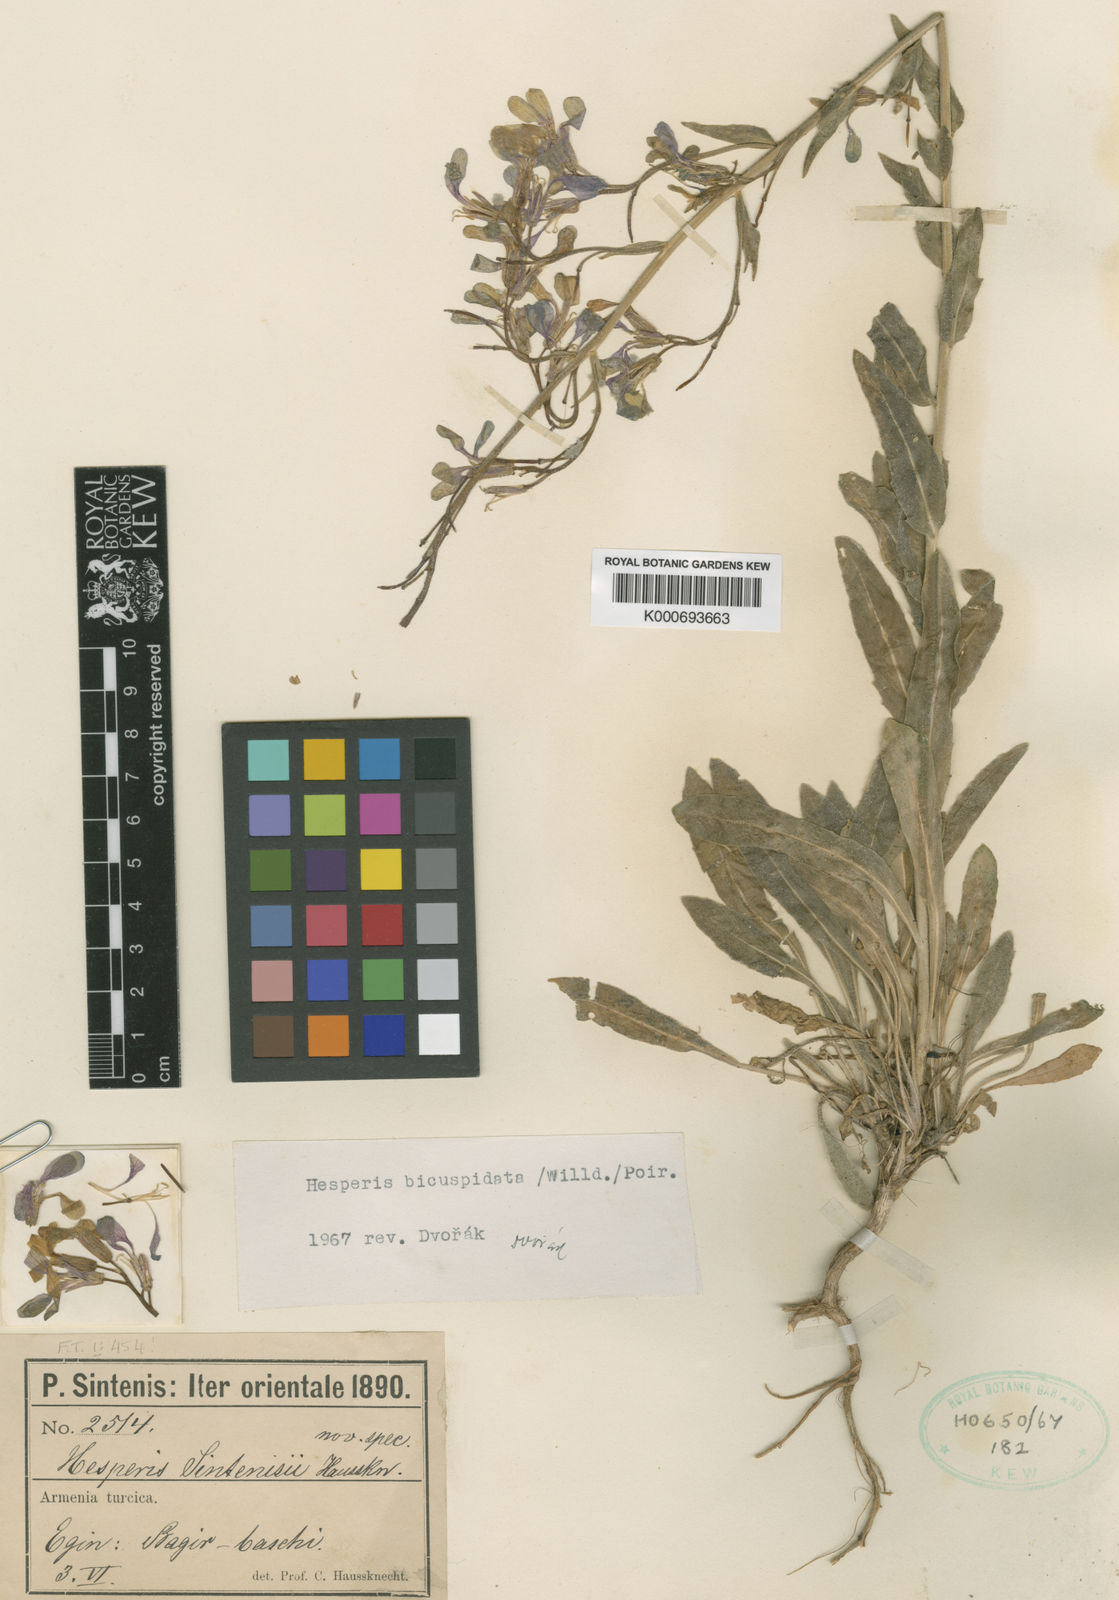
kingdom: Plantae
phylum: Tracheophyta
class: Magnoliopsida
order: Brassicales
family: Brassicaceae
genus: Hesperis
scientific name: Hesperis bicuspidata
